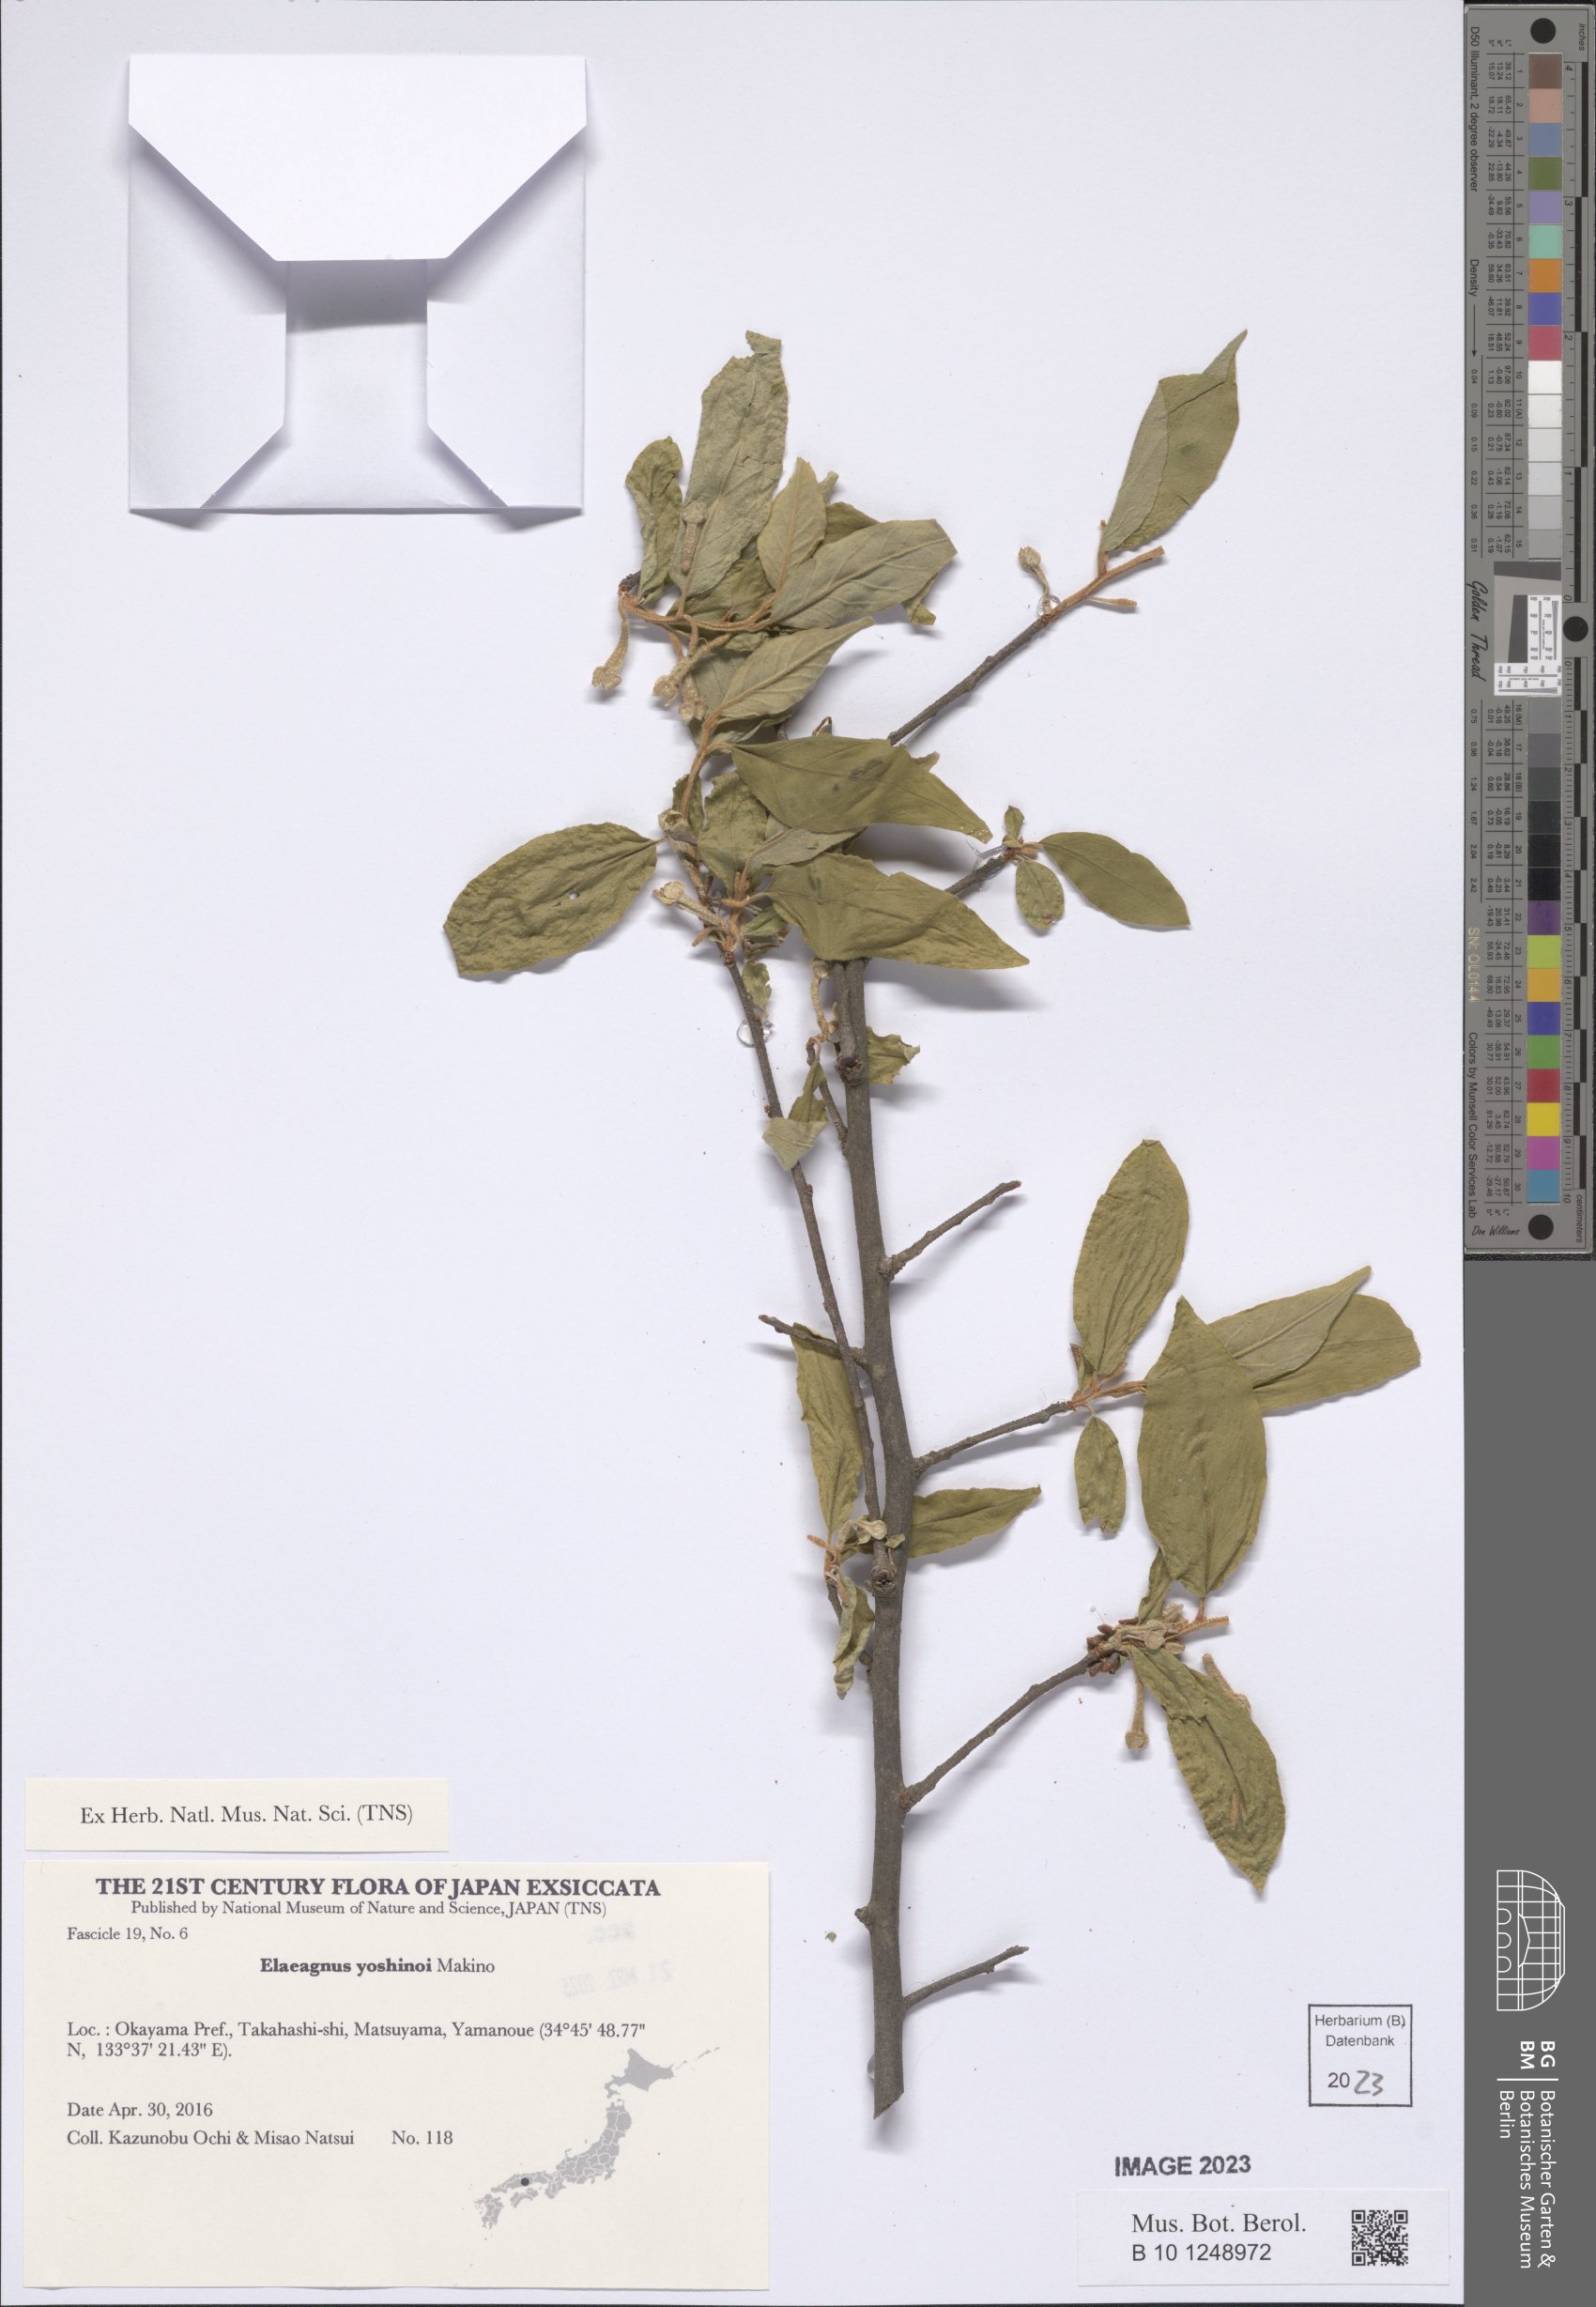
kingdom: Plantae
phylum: Tracheophyta
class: Magnoliopsida
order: Rosales
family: Elaeagnaceae
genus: Elaeagnus
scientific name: Elaeagnus yoshinoi
